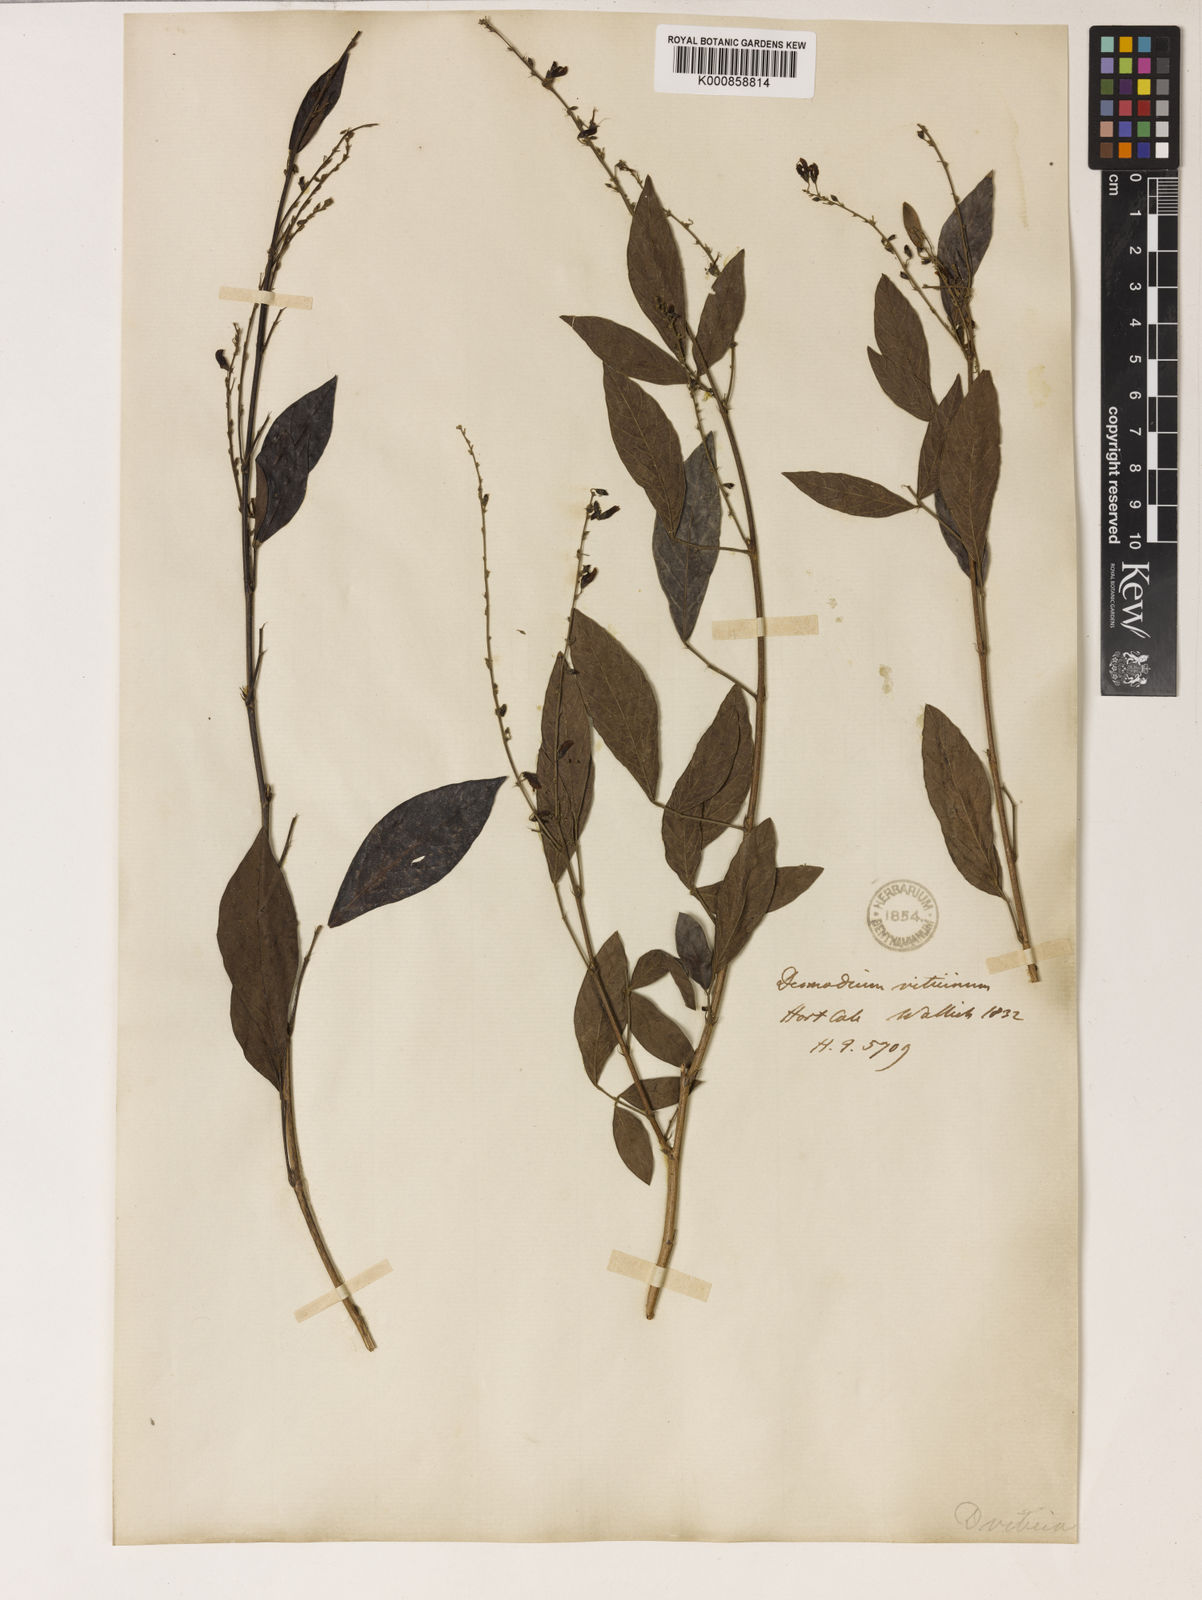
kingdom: Plantae
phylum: Tracheophyta
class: Magnoliopsida
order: Fabales
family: Fabaceae
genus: Ohwia
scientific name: Ohwia caudata
